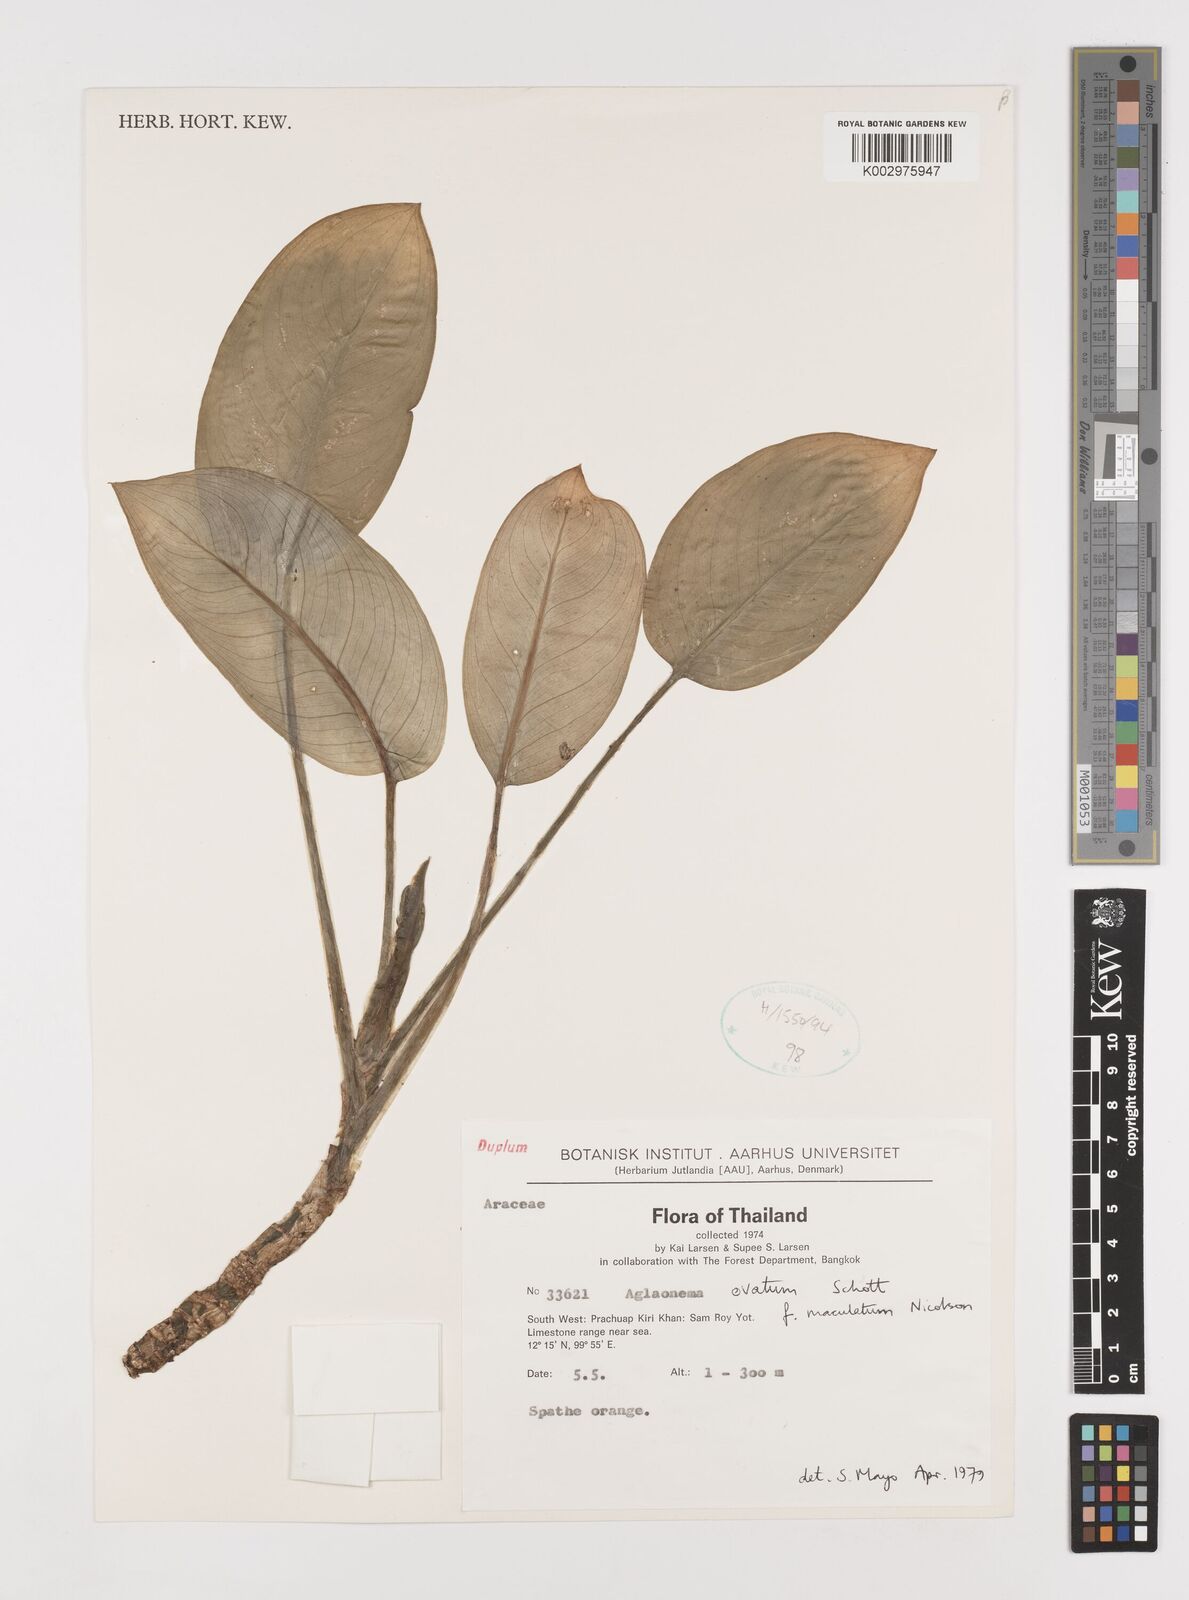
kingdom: Plantae
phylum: Tracheophyta
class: Liliopsida
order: Alismatales
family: Araceae
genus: Aglaonema
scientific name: Aglaonema ovatum
